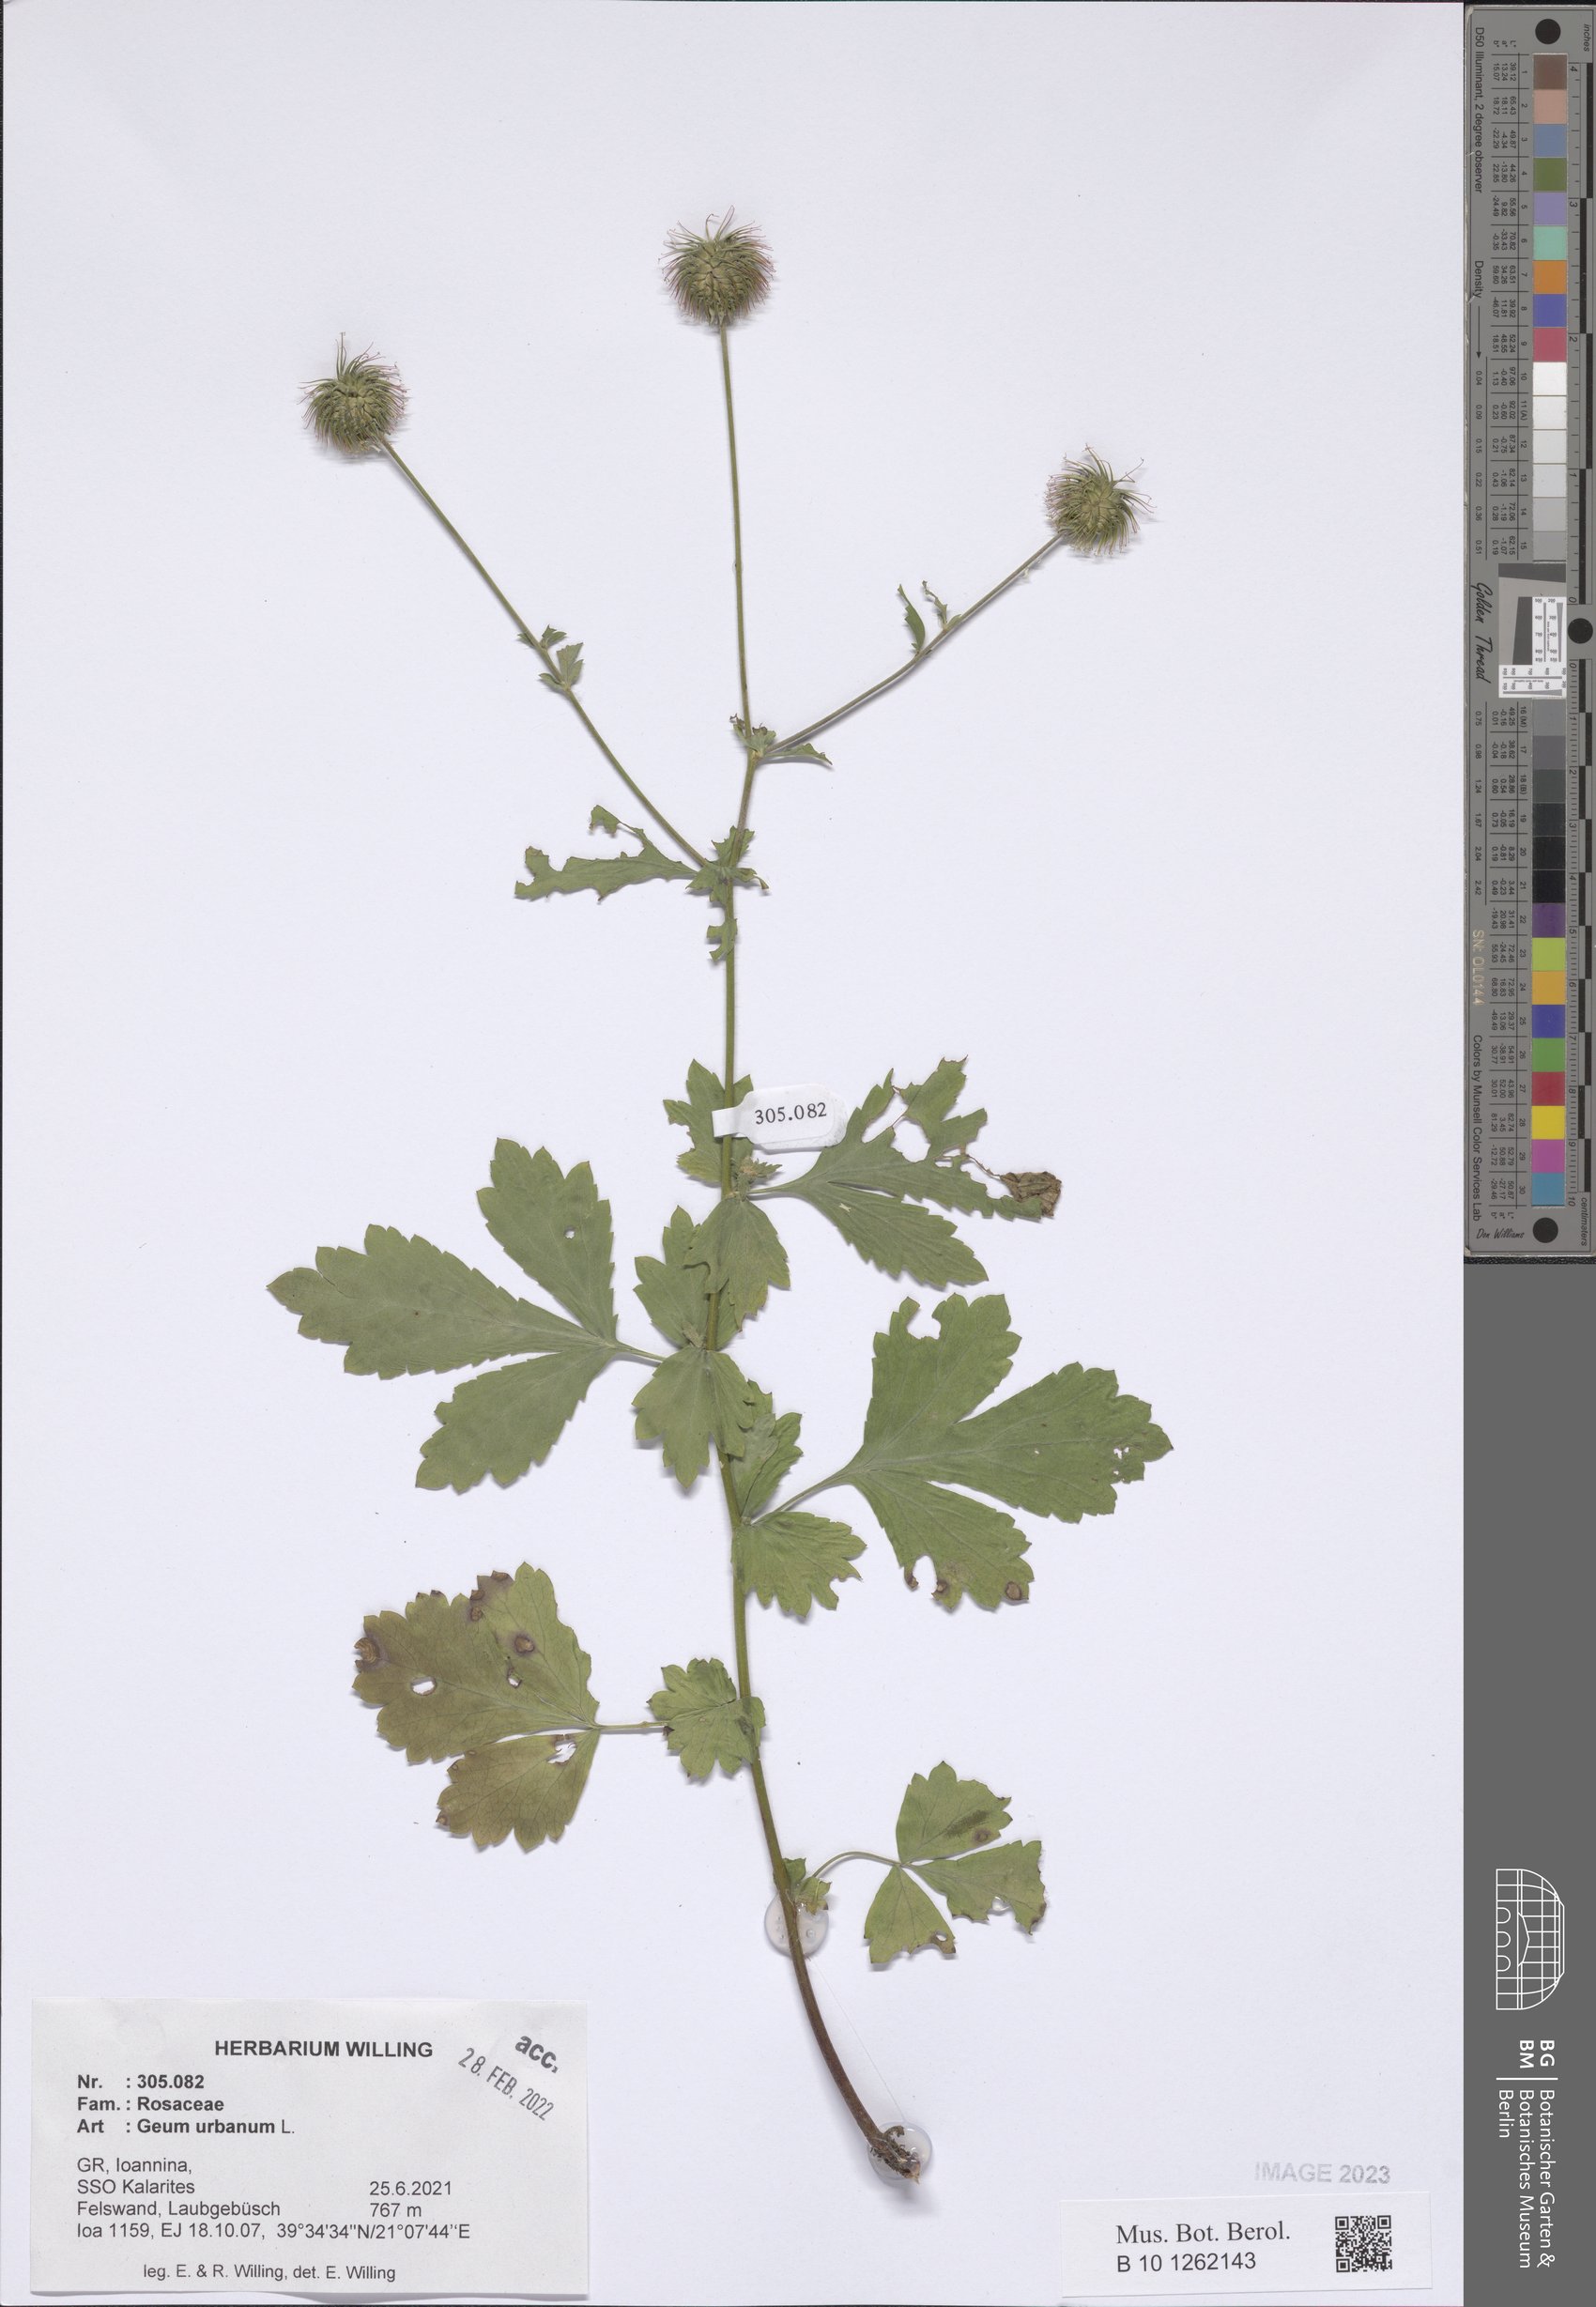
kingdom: Plantae
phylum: Tracheophyta
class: Magnoliopsida
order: Rosales
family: Rosaceae
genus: Geum
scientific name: Geum urbanum
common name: Wood avens
